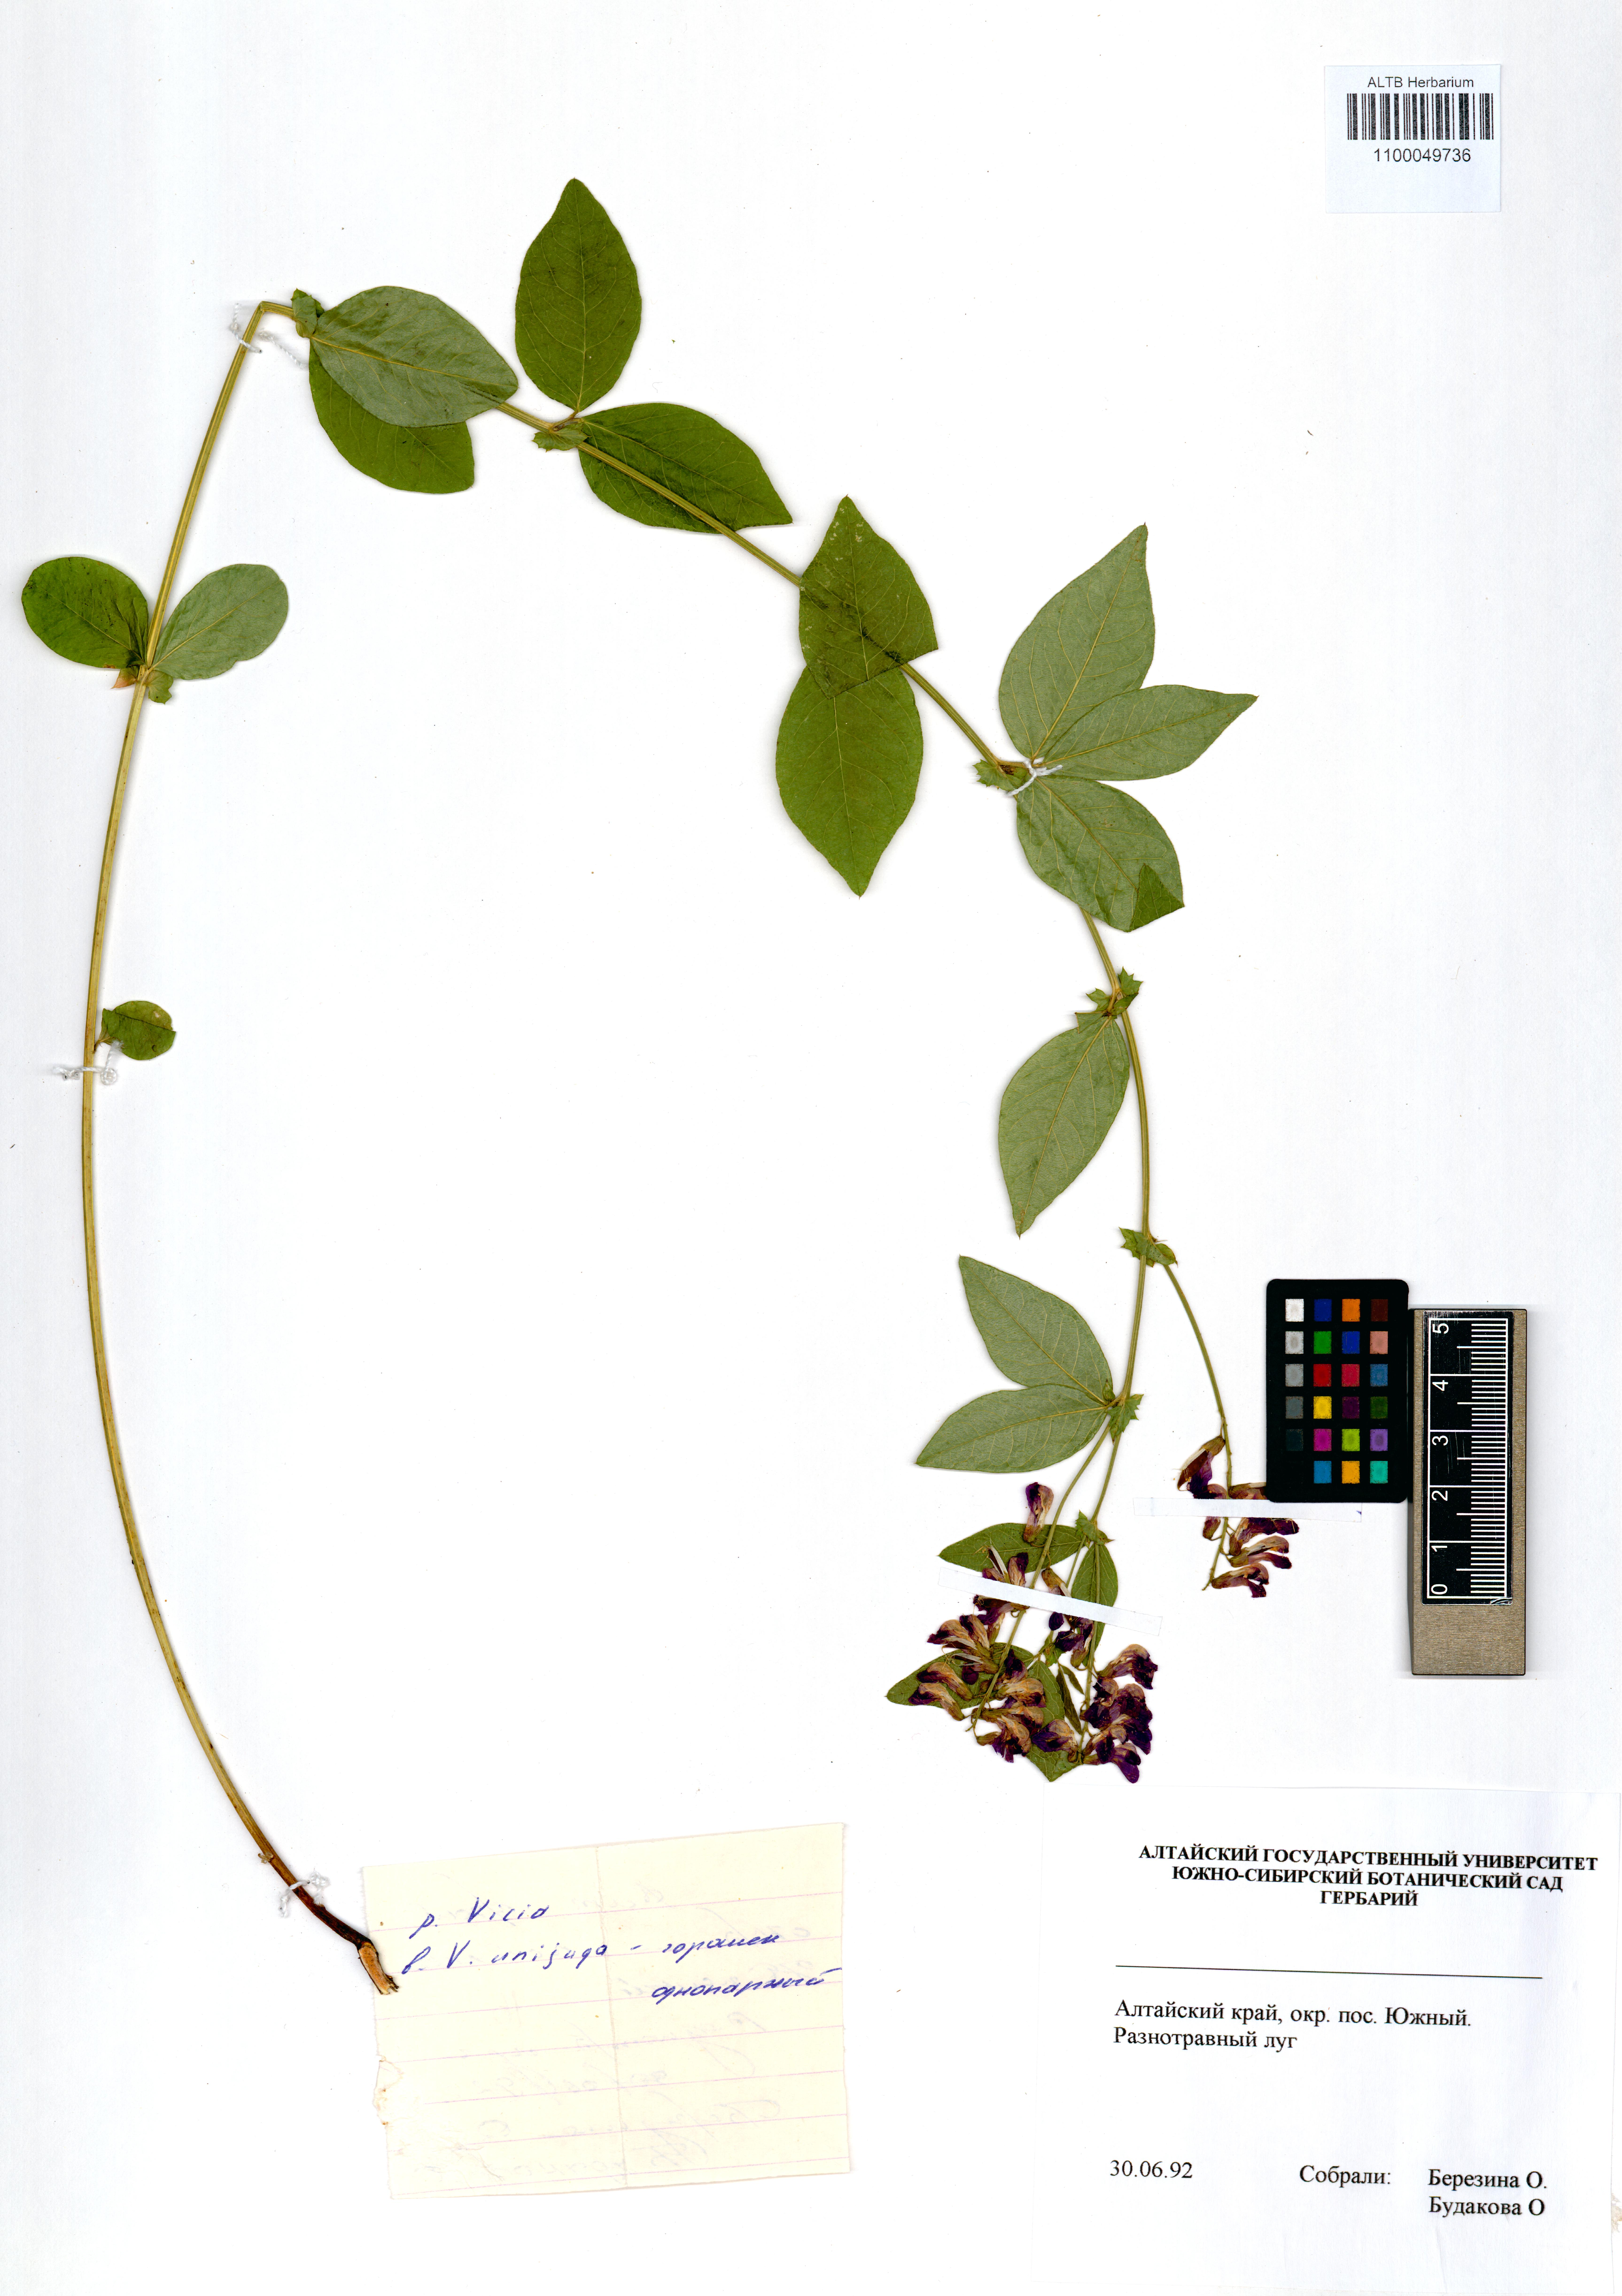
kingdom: Plantae
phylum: Tracheophyta
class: Magnoliopsida
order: Fabales
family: Fabaceae
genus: Vicia
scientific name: Vicia unijuga
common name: Two-leaf vetch
